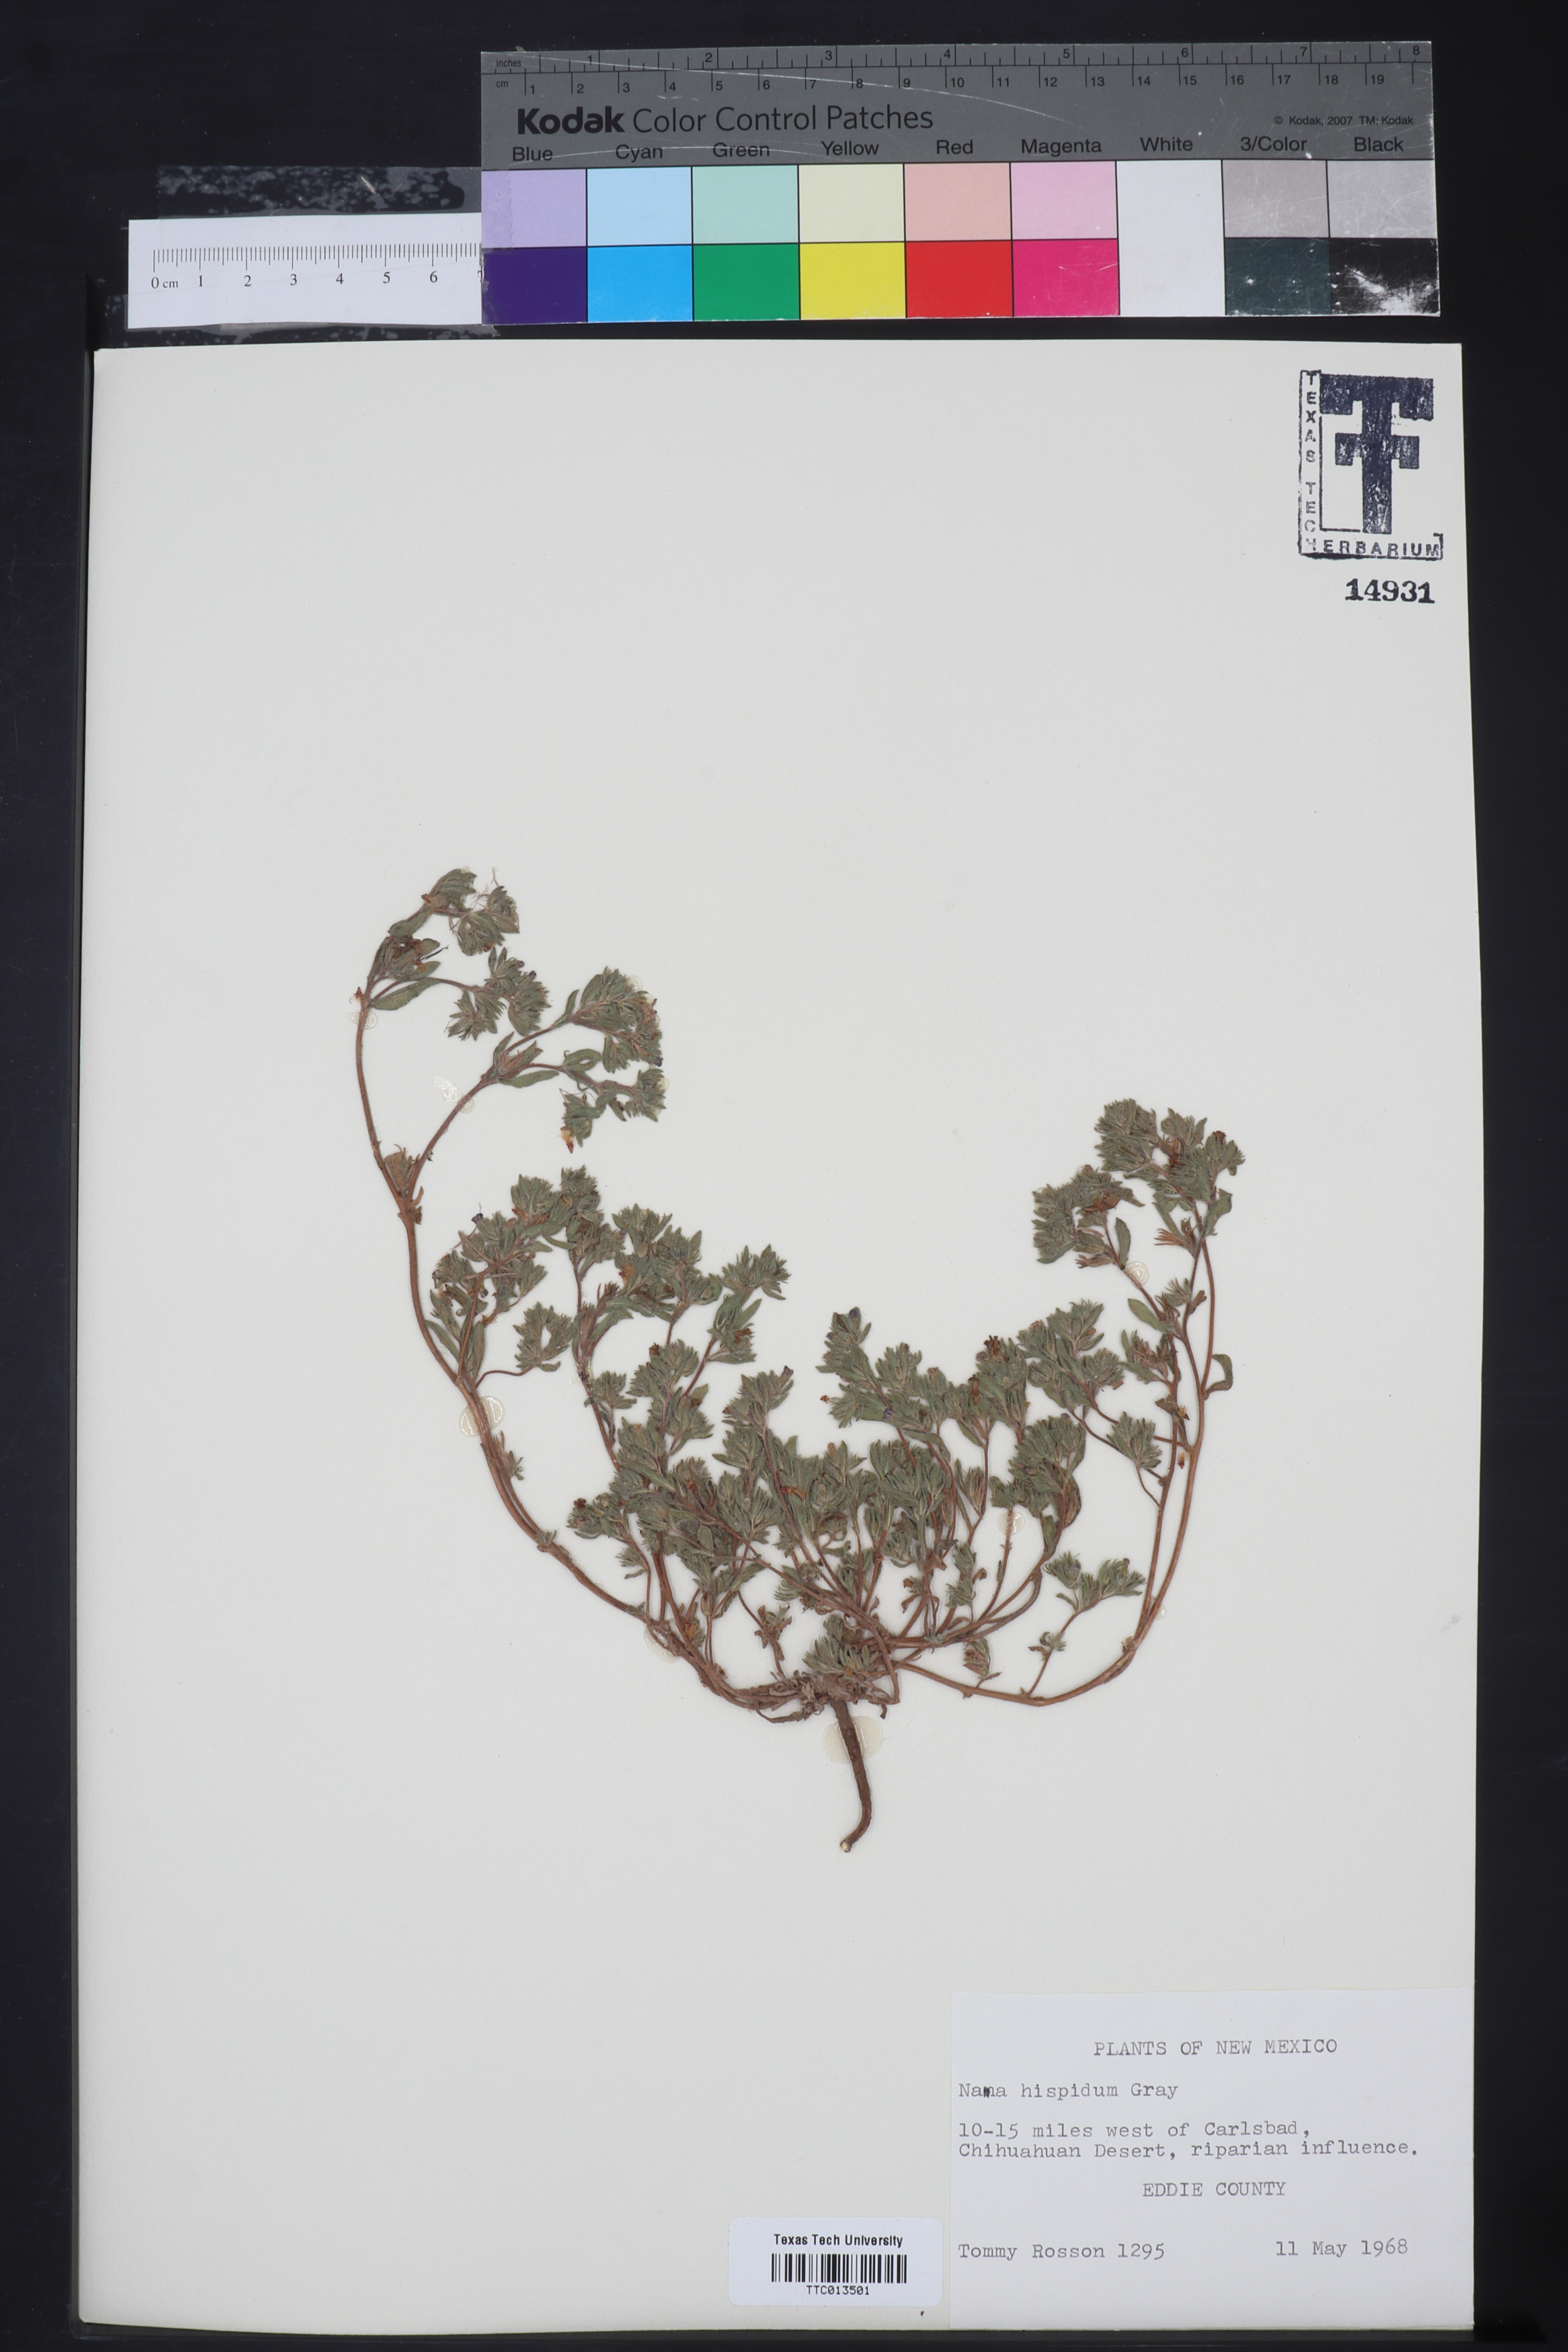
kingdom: Plantae
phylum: Tracheophyta
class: Magnoliopsida
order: Boraginales
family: Namaceae
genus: Nama
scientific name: Nama hispida
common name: Bristly nama
